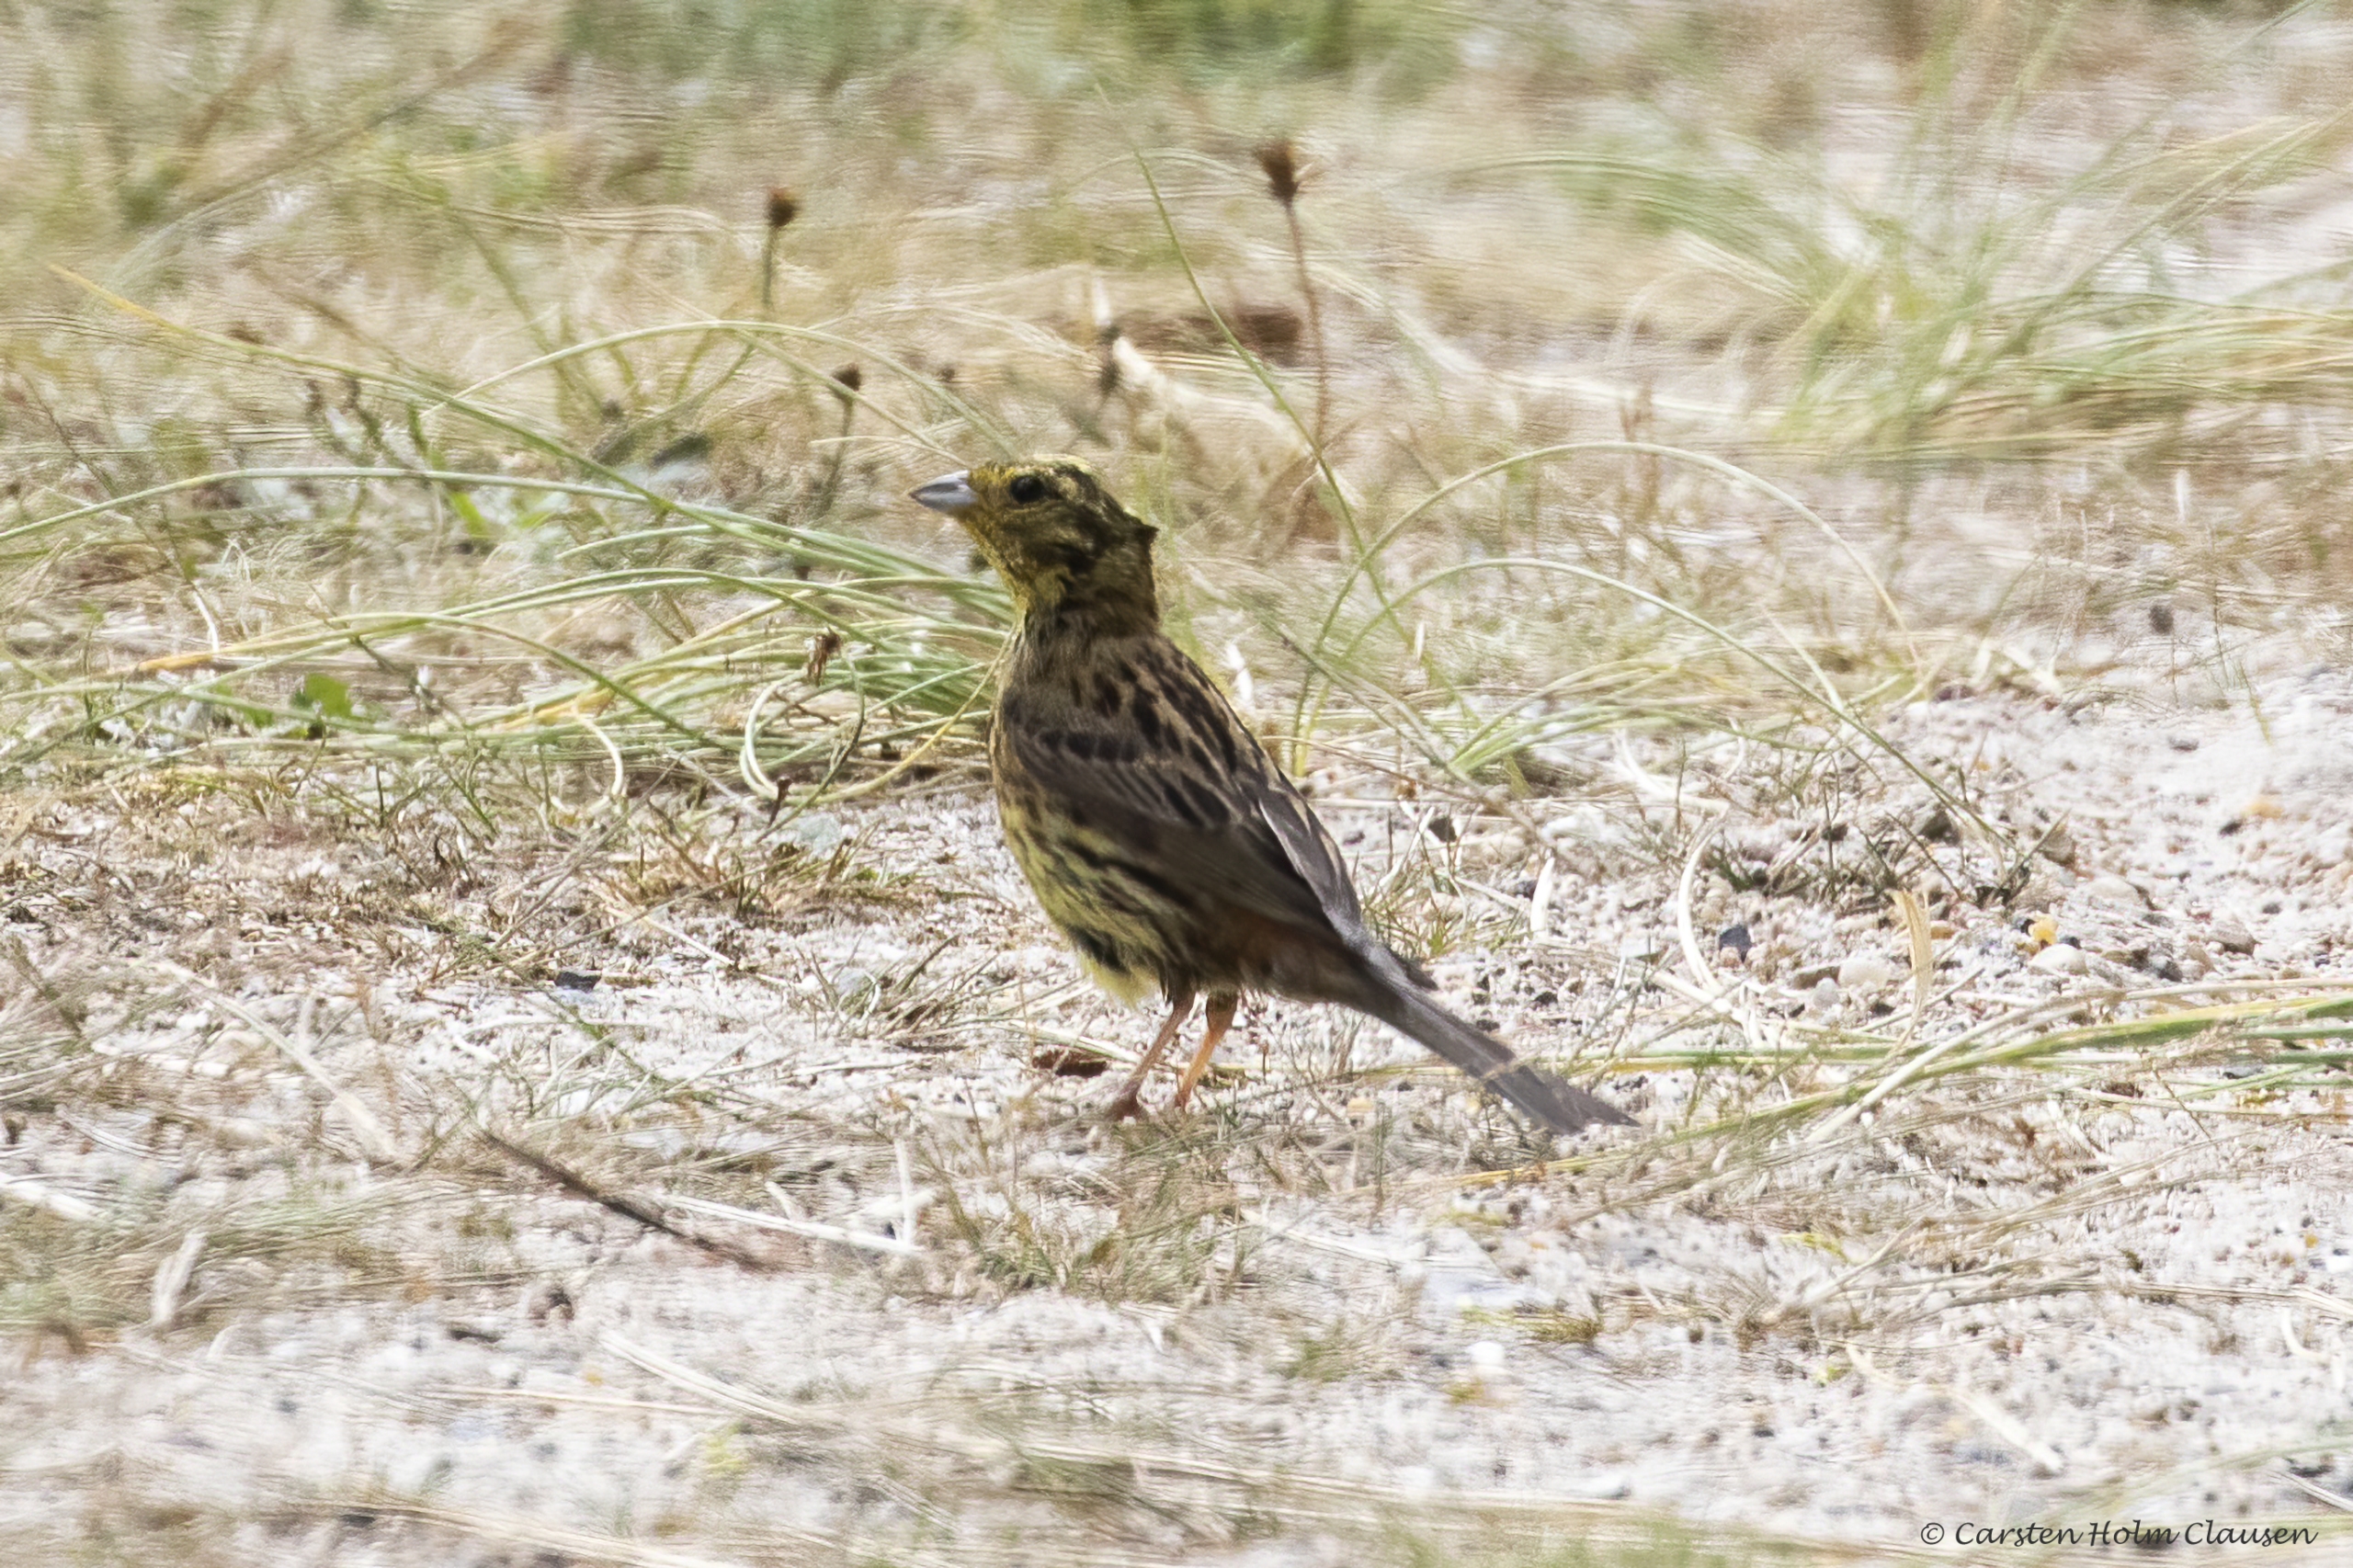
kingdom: Animalia
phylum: Chordata
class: Aves
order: Passeriformes
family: Emberizidae
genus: Emberiza
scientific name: Emberiza citrinella
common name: Gulspurv
